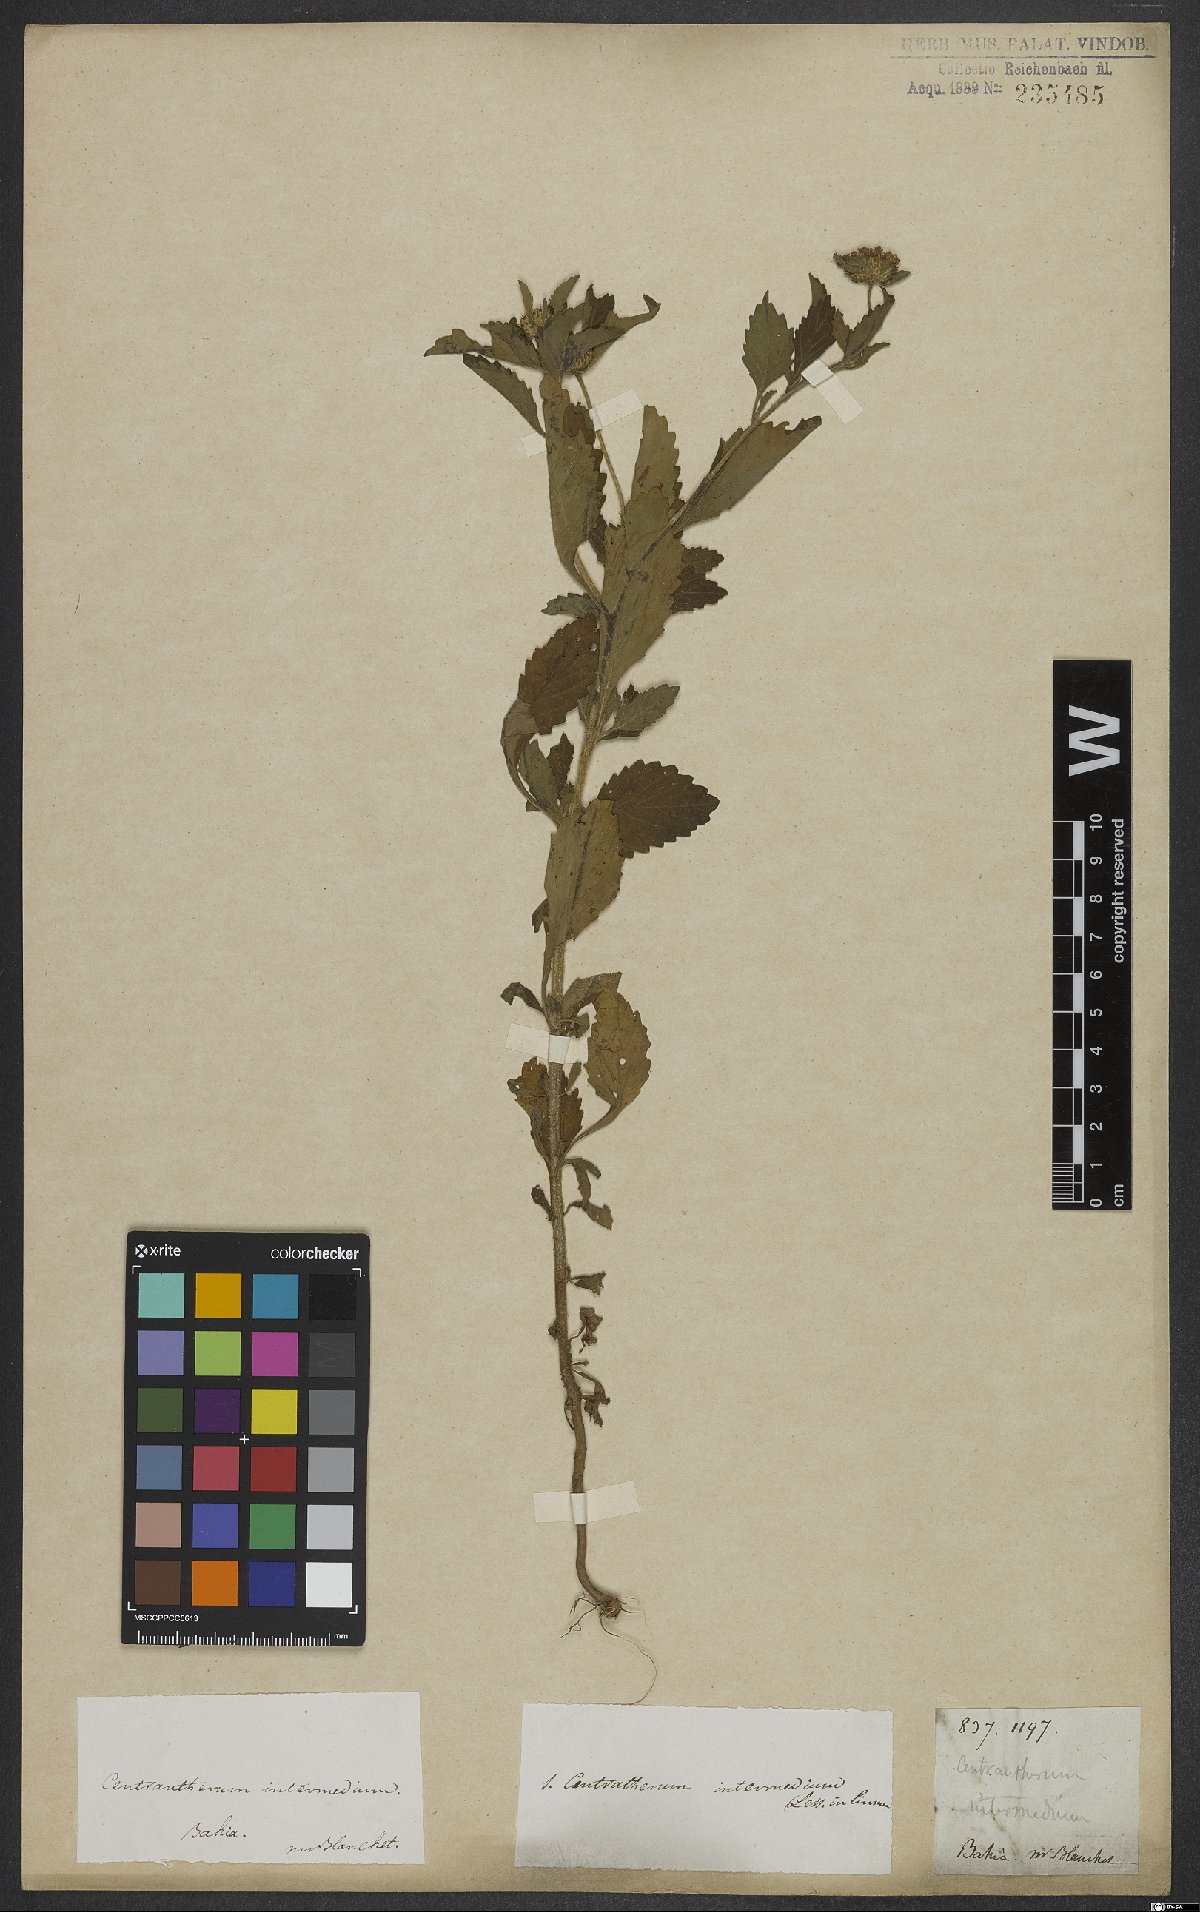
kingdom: Plantae
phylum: Tracheophyta
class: Magnoliopsida
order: Asterales
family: Asteraceae
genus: Centratherum
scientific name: Centratherum punctatum
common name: Larkdaisy
